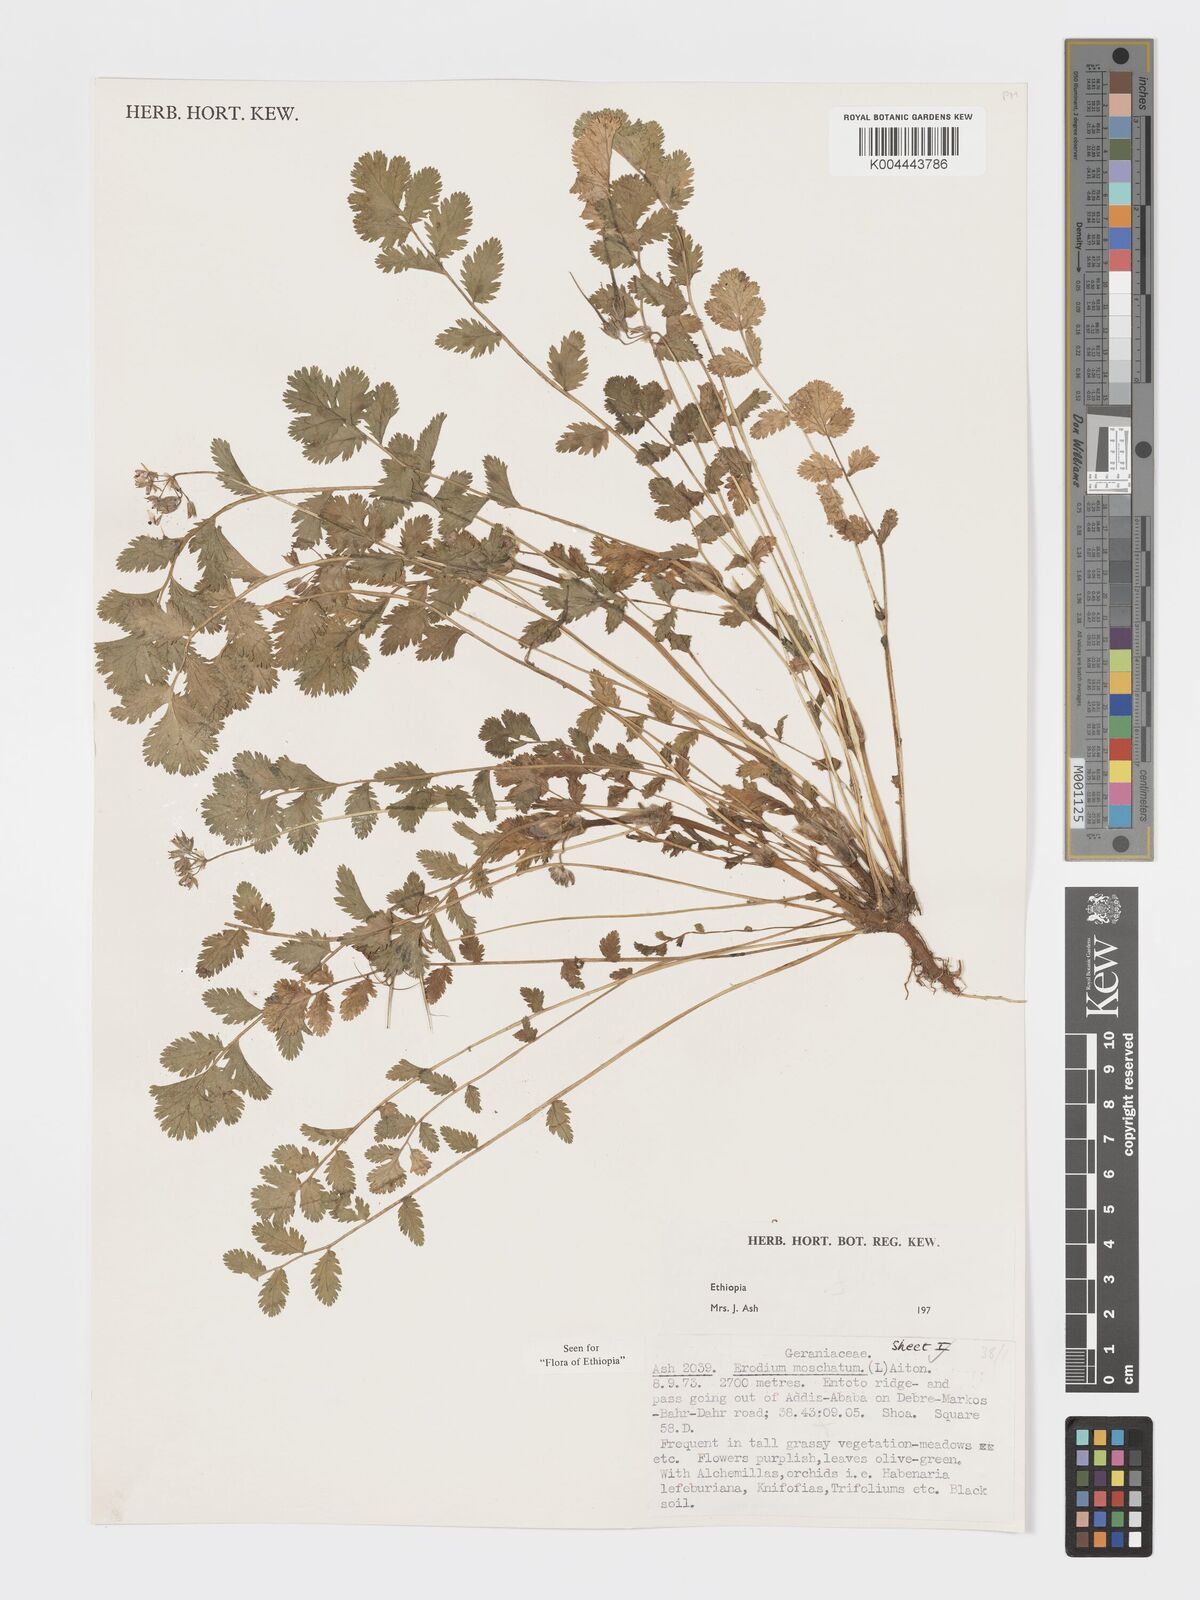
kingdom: Plantae
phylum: Tracheophyta
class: Magnoliopsida
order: Geraniales
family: Geraniaceae
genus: Erodium
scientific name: Erodium moschatum
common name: Musk stork's-bill
